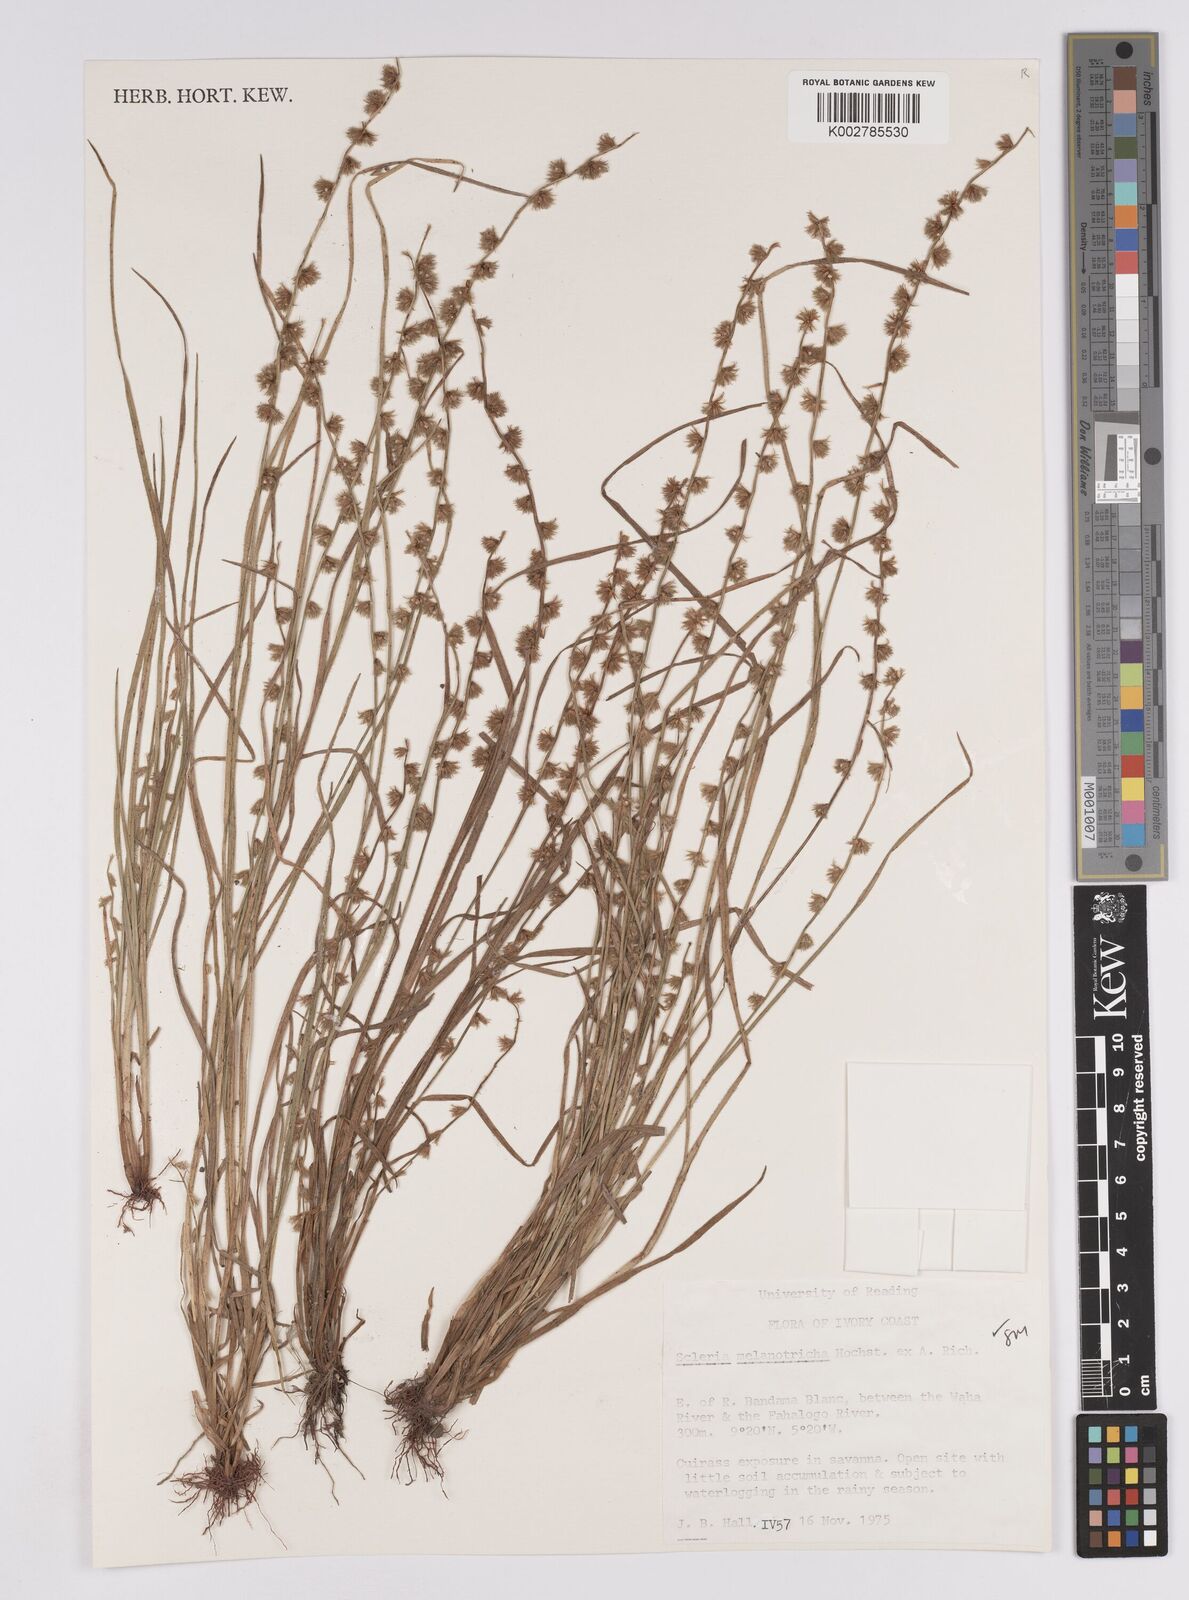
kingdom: Plantae
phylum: Tracheophyta
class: Liliopsida
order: Poales
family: Cyperaceae
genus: Scleria
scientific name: Scleria melanotricha
